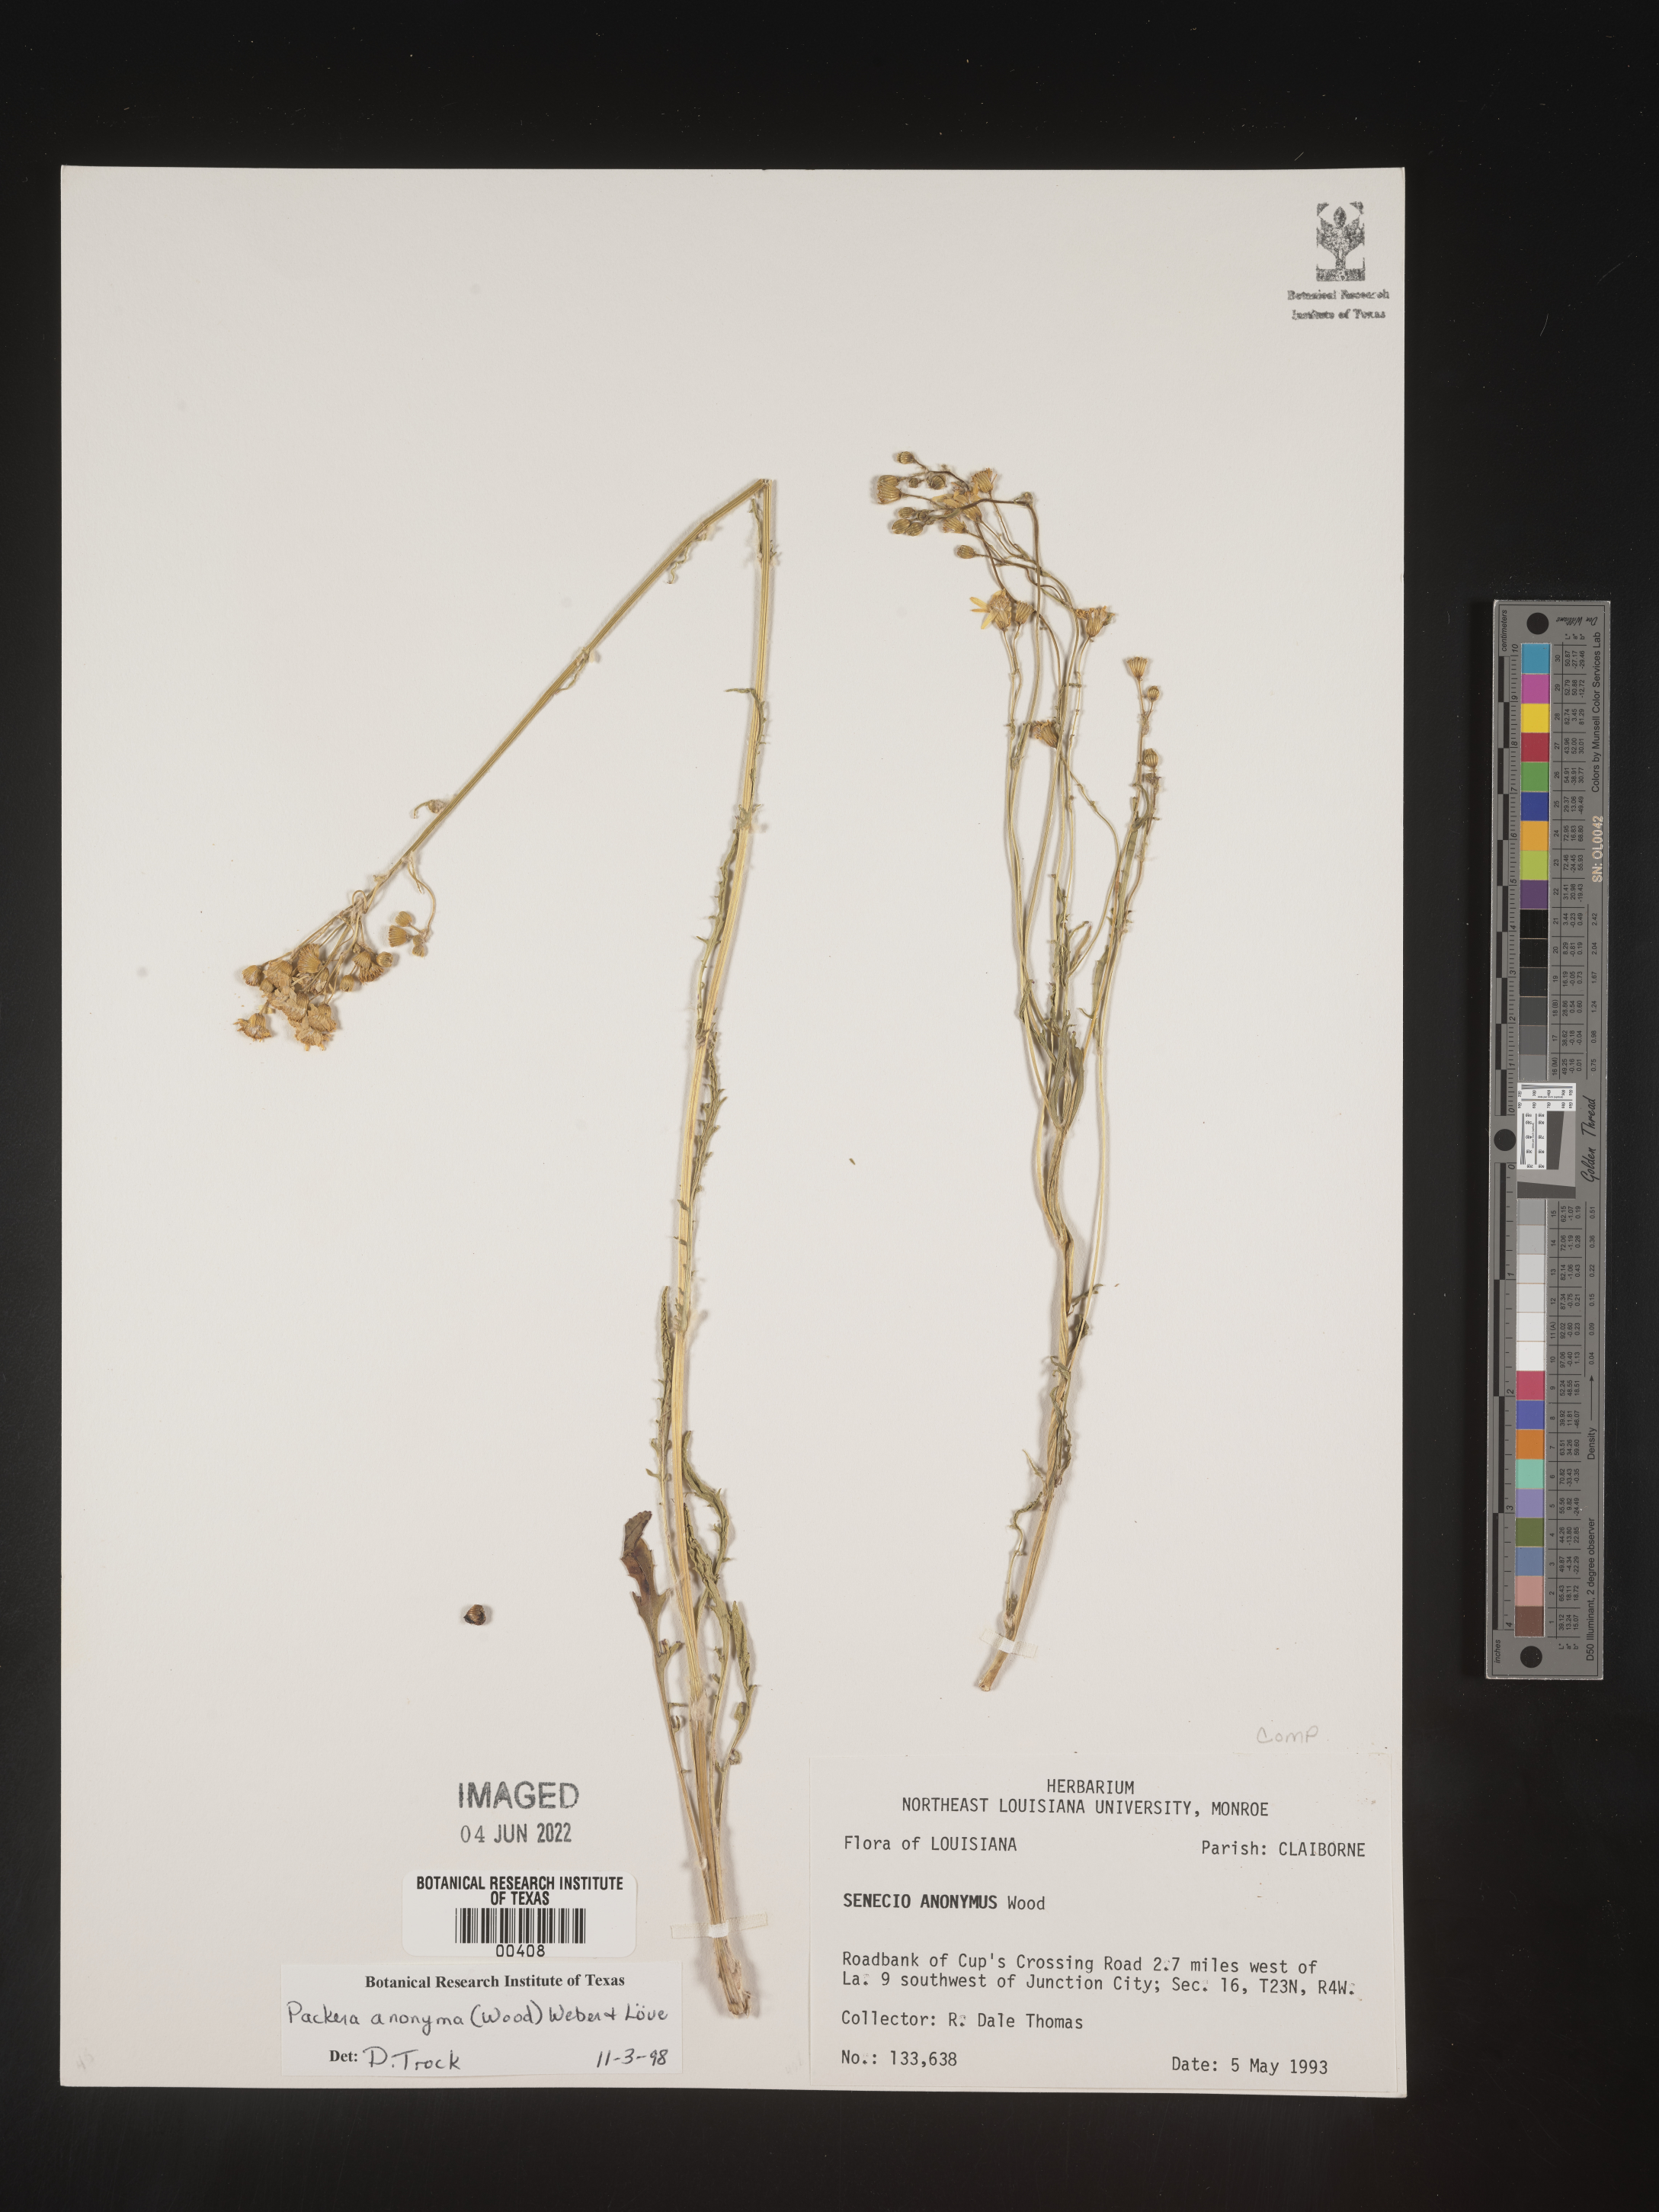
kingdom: Plantae
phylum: Tracheophyta
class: Magnoliopsida
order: Asterales
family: Asteraceae
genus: Packera
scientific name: Packera anonyma
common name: Small ragwort
